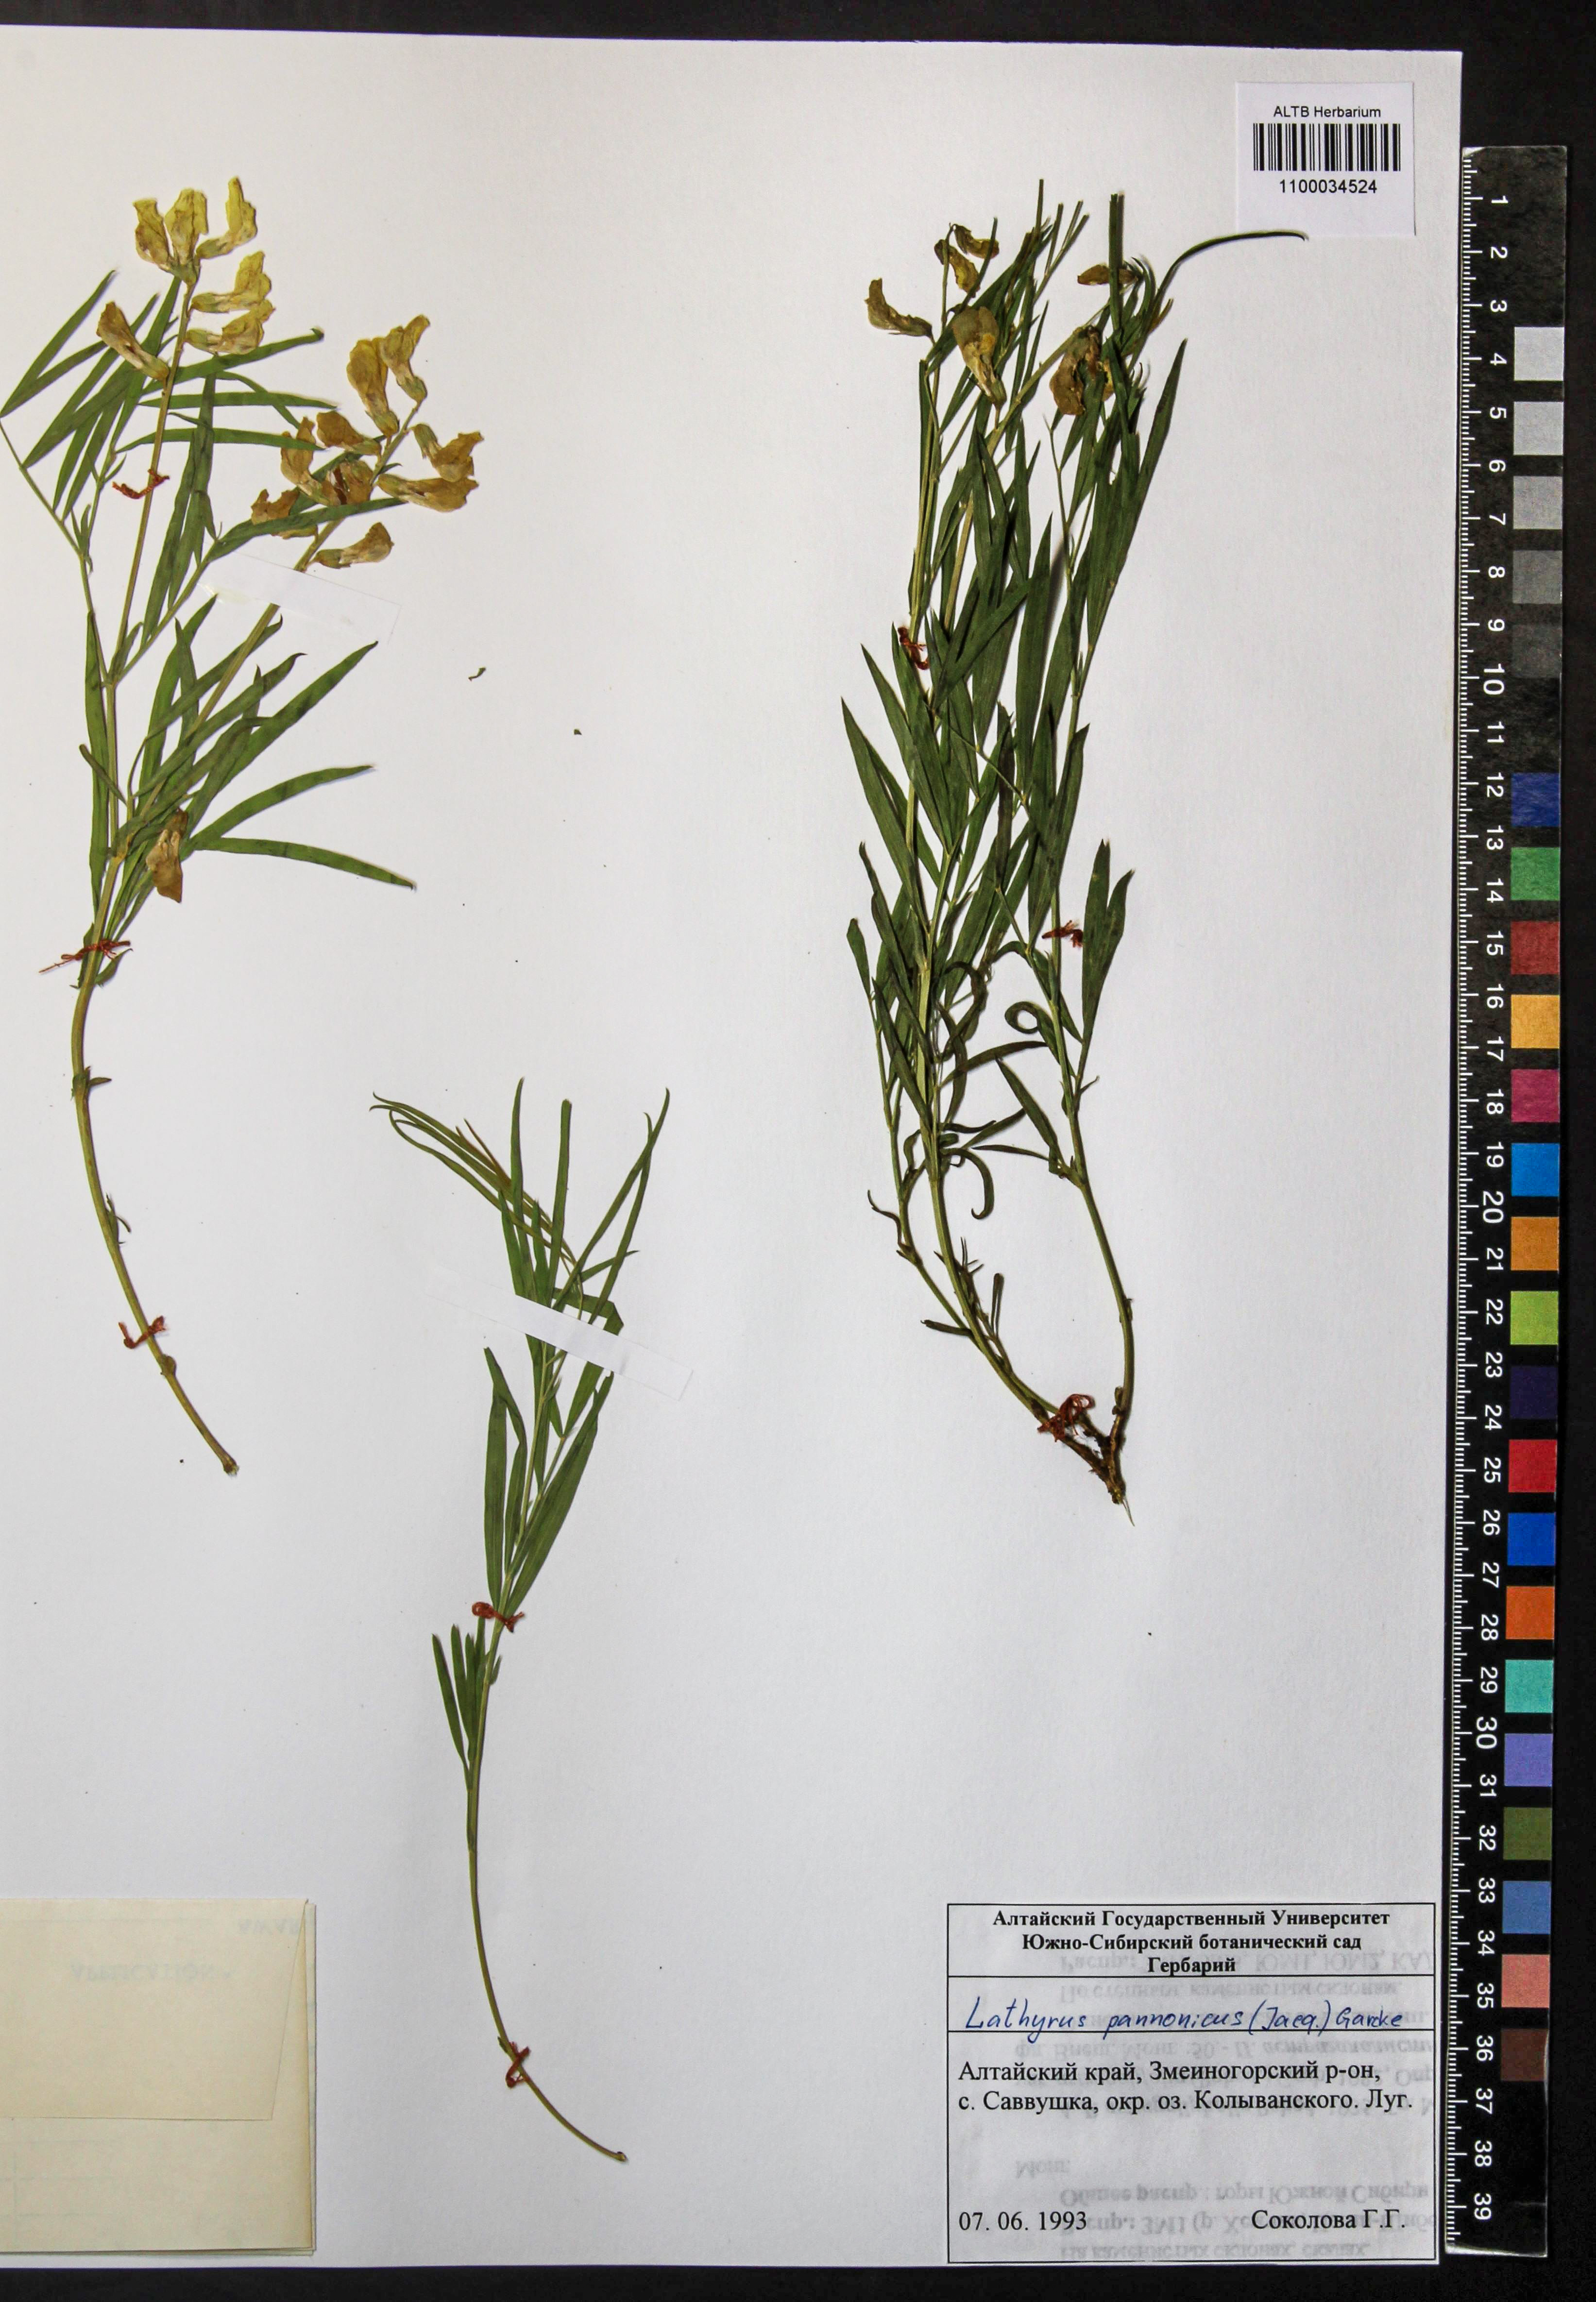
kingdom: Plantae
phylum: Tracheophyta
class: Magnoliopsida
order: Fabales
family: Fabaceae
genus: Lathyrus
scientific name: Lathyrus pannonicus
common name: Pea
